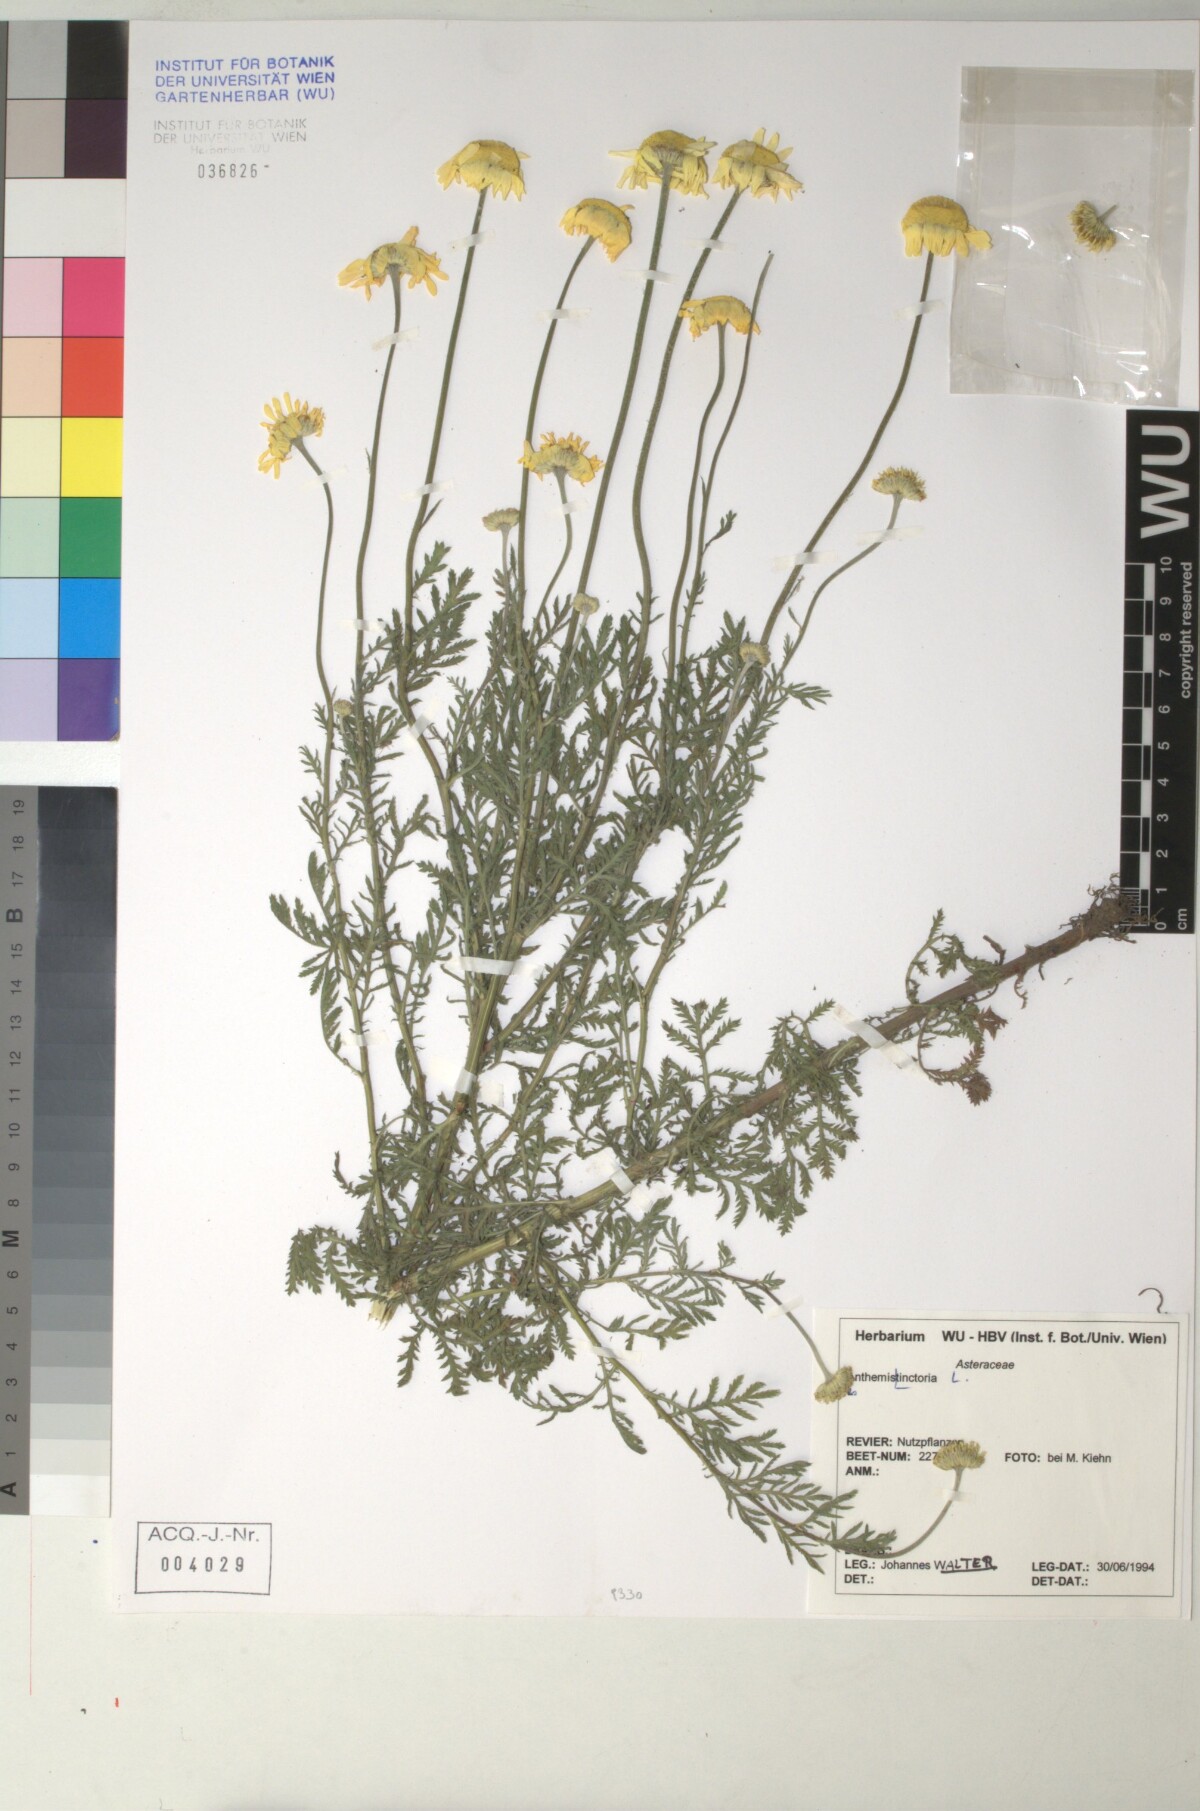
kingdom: Plantae
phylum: Tracheophyta
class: Magnoliopsida
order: Asterales
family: Asteraceae
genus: Cota
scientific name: Cota tinctoria
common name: Golden chamomile
